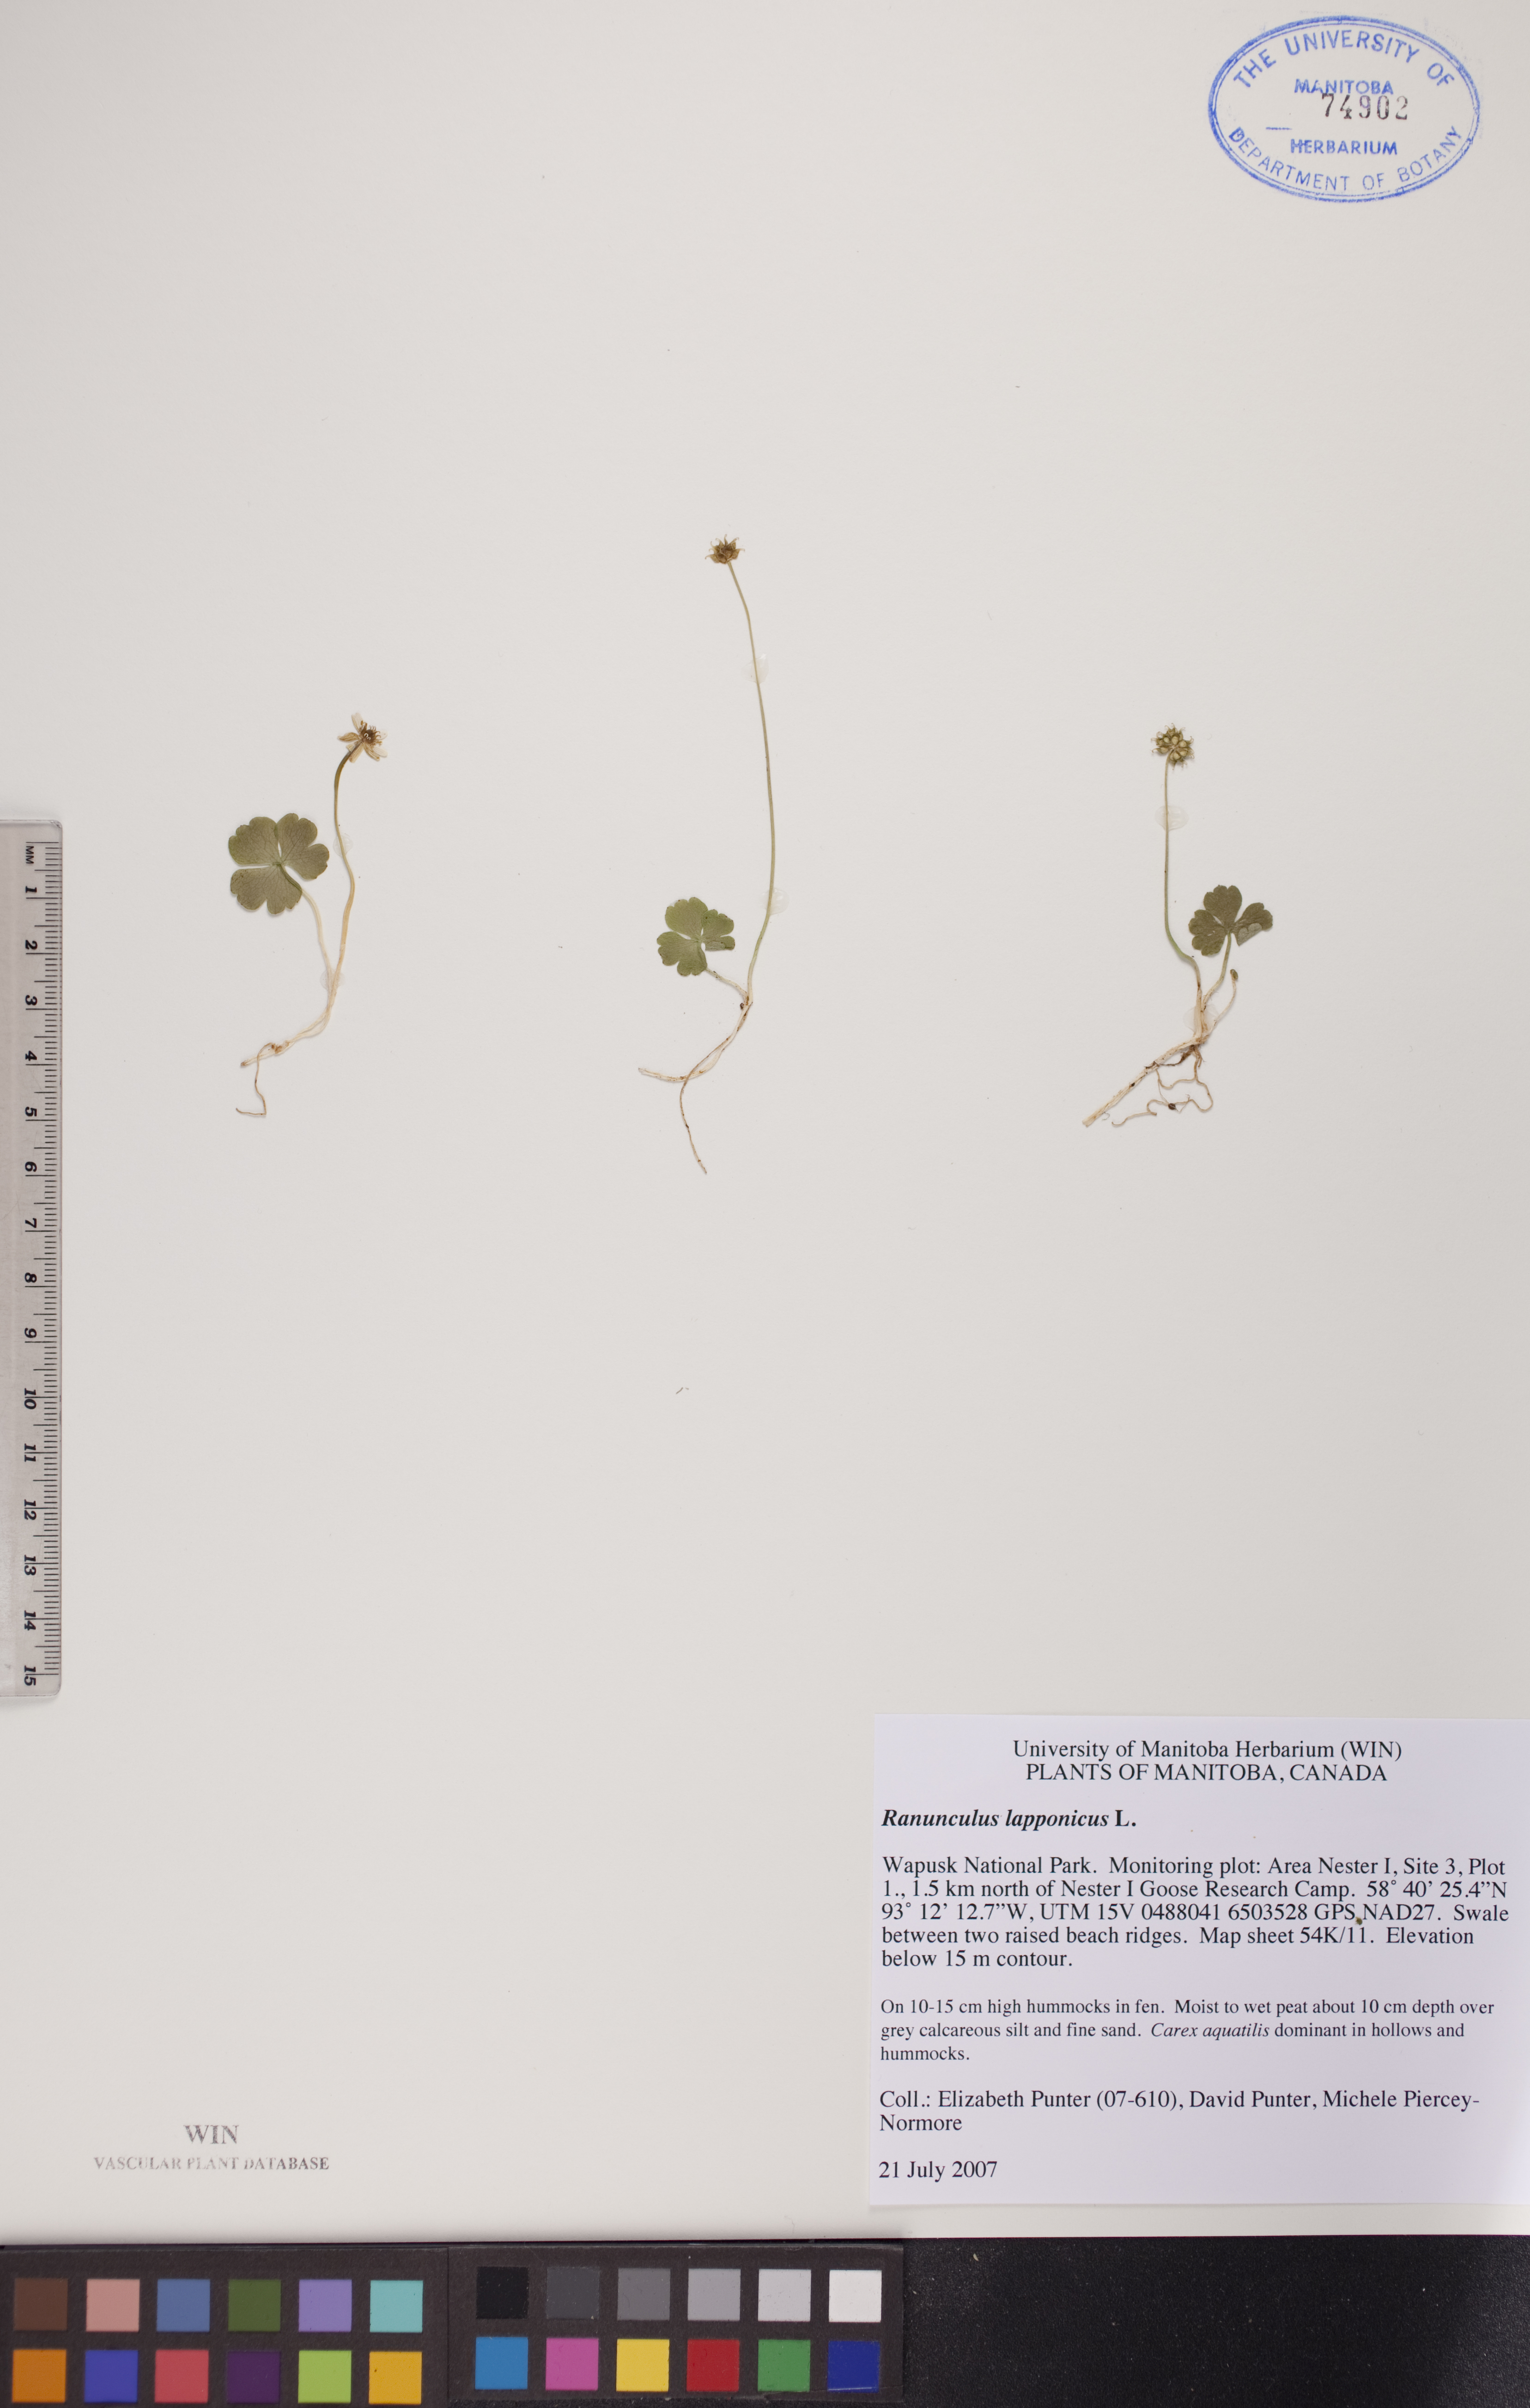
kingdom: Plantae
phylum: Tracheophyta
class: Magnoliopsida
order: Ranunculales
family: Ranunculaceae
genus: Coptidium
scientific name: Coptidium lapponicum
